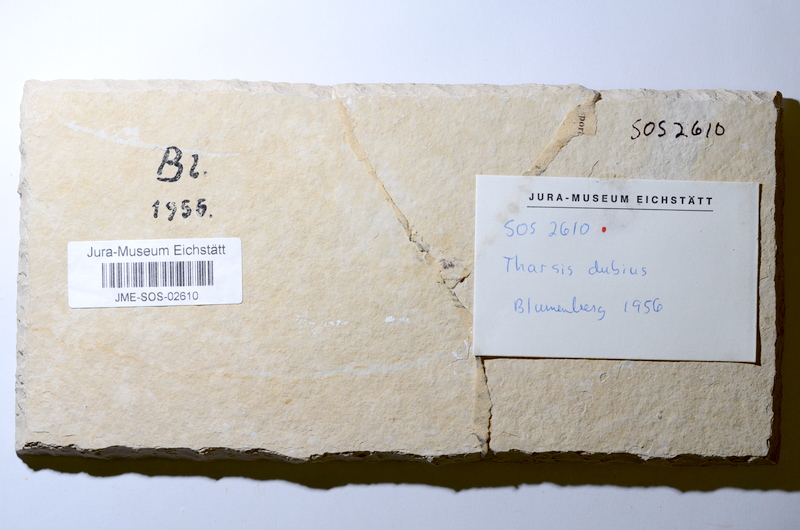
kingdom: Animalia
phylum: Chordata
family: Ascalaboidae
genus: Tharsis
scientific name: Tharsis dubius
